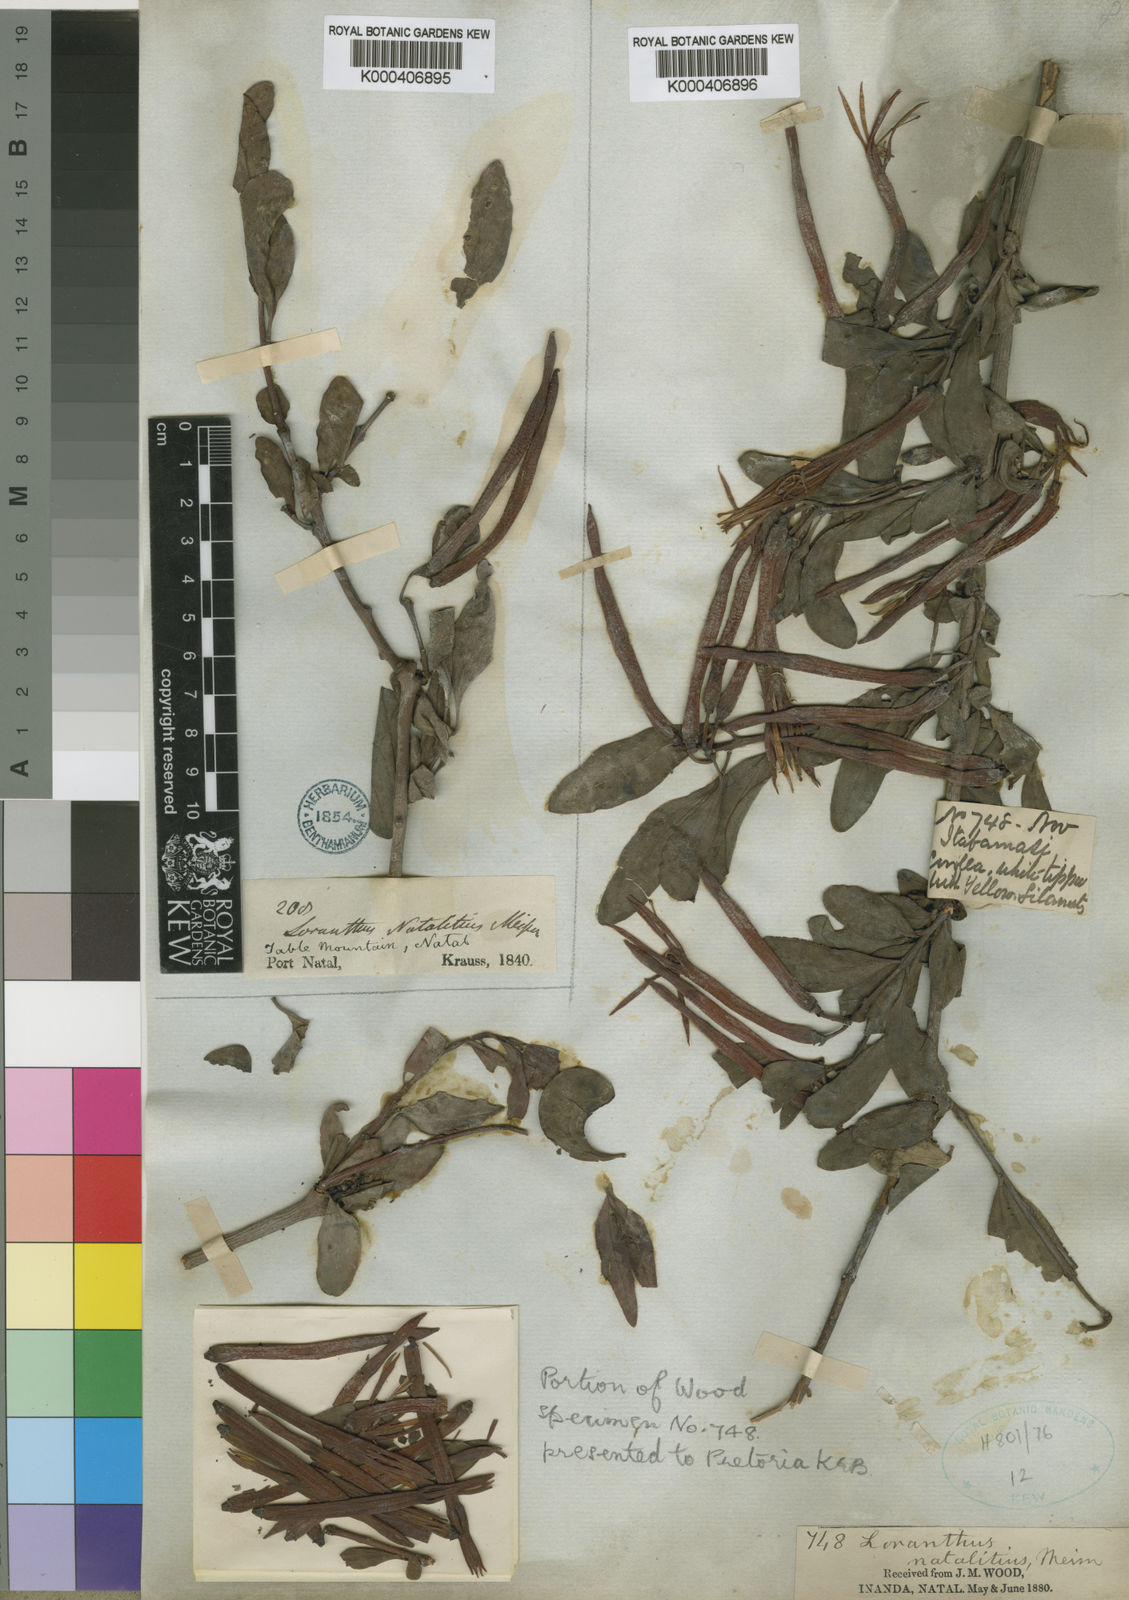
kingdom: Plantae
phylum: Tracheophyta
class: Magnoliopsida
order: Santalales
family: Loranthaceae
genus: Agelanthus
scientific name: Agelanthus natalitius
